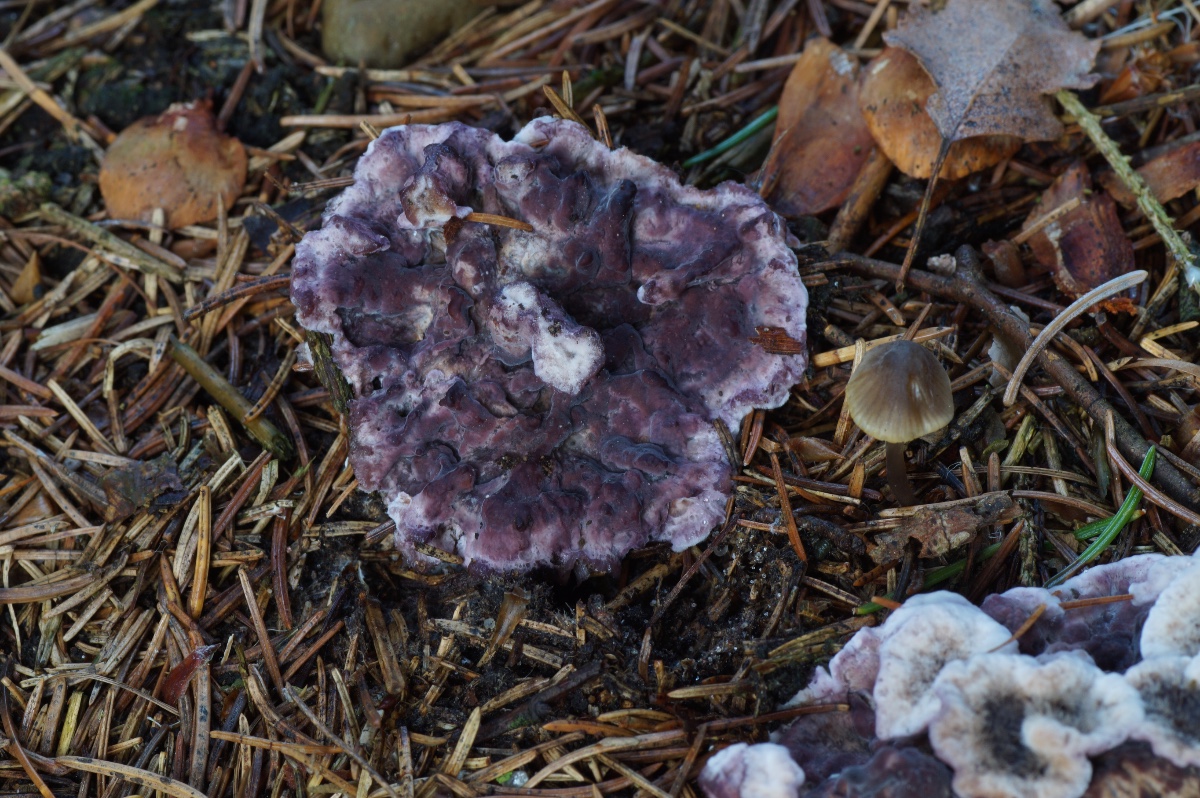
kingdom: Fungi
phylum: Basidiomycota
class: Agaricomycetes
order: Agaricales
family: Cyphellaceae
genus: Chondrostereum
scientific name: Chondrostereum purpureum
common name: purpurlædersvamp
